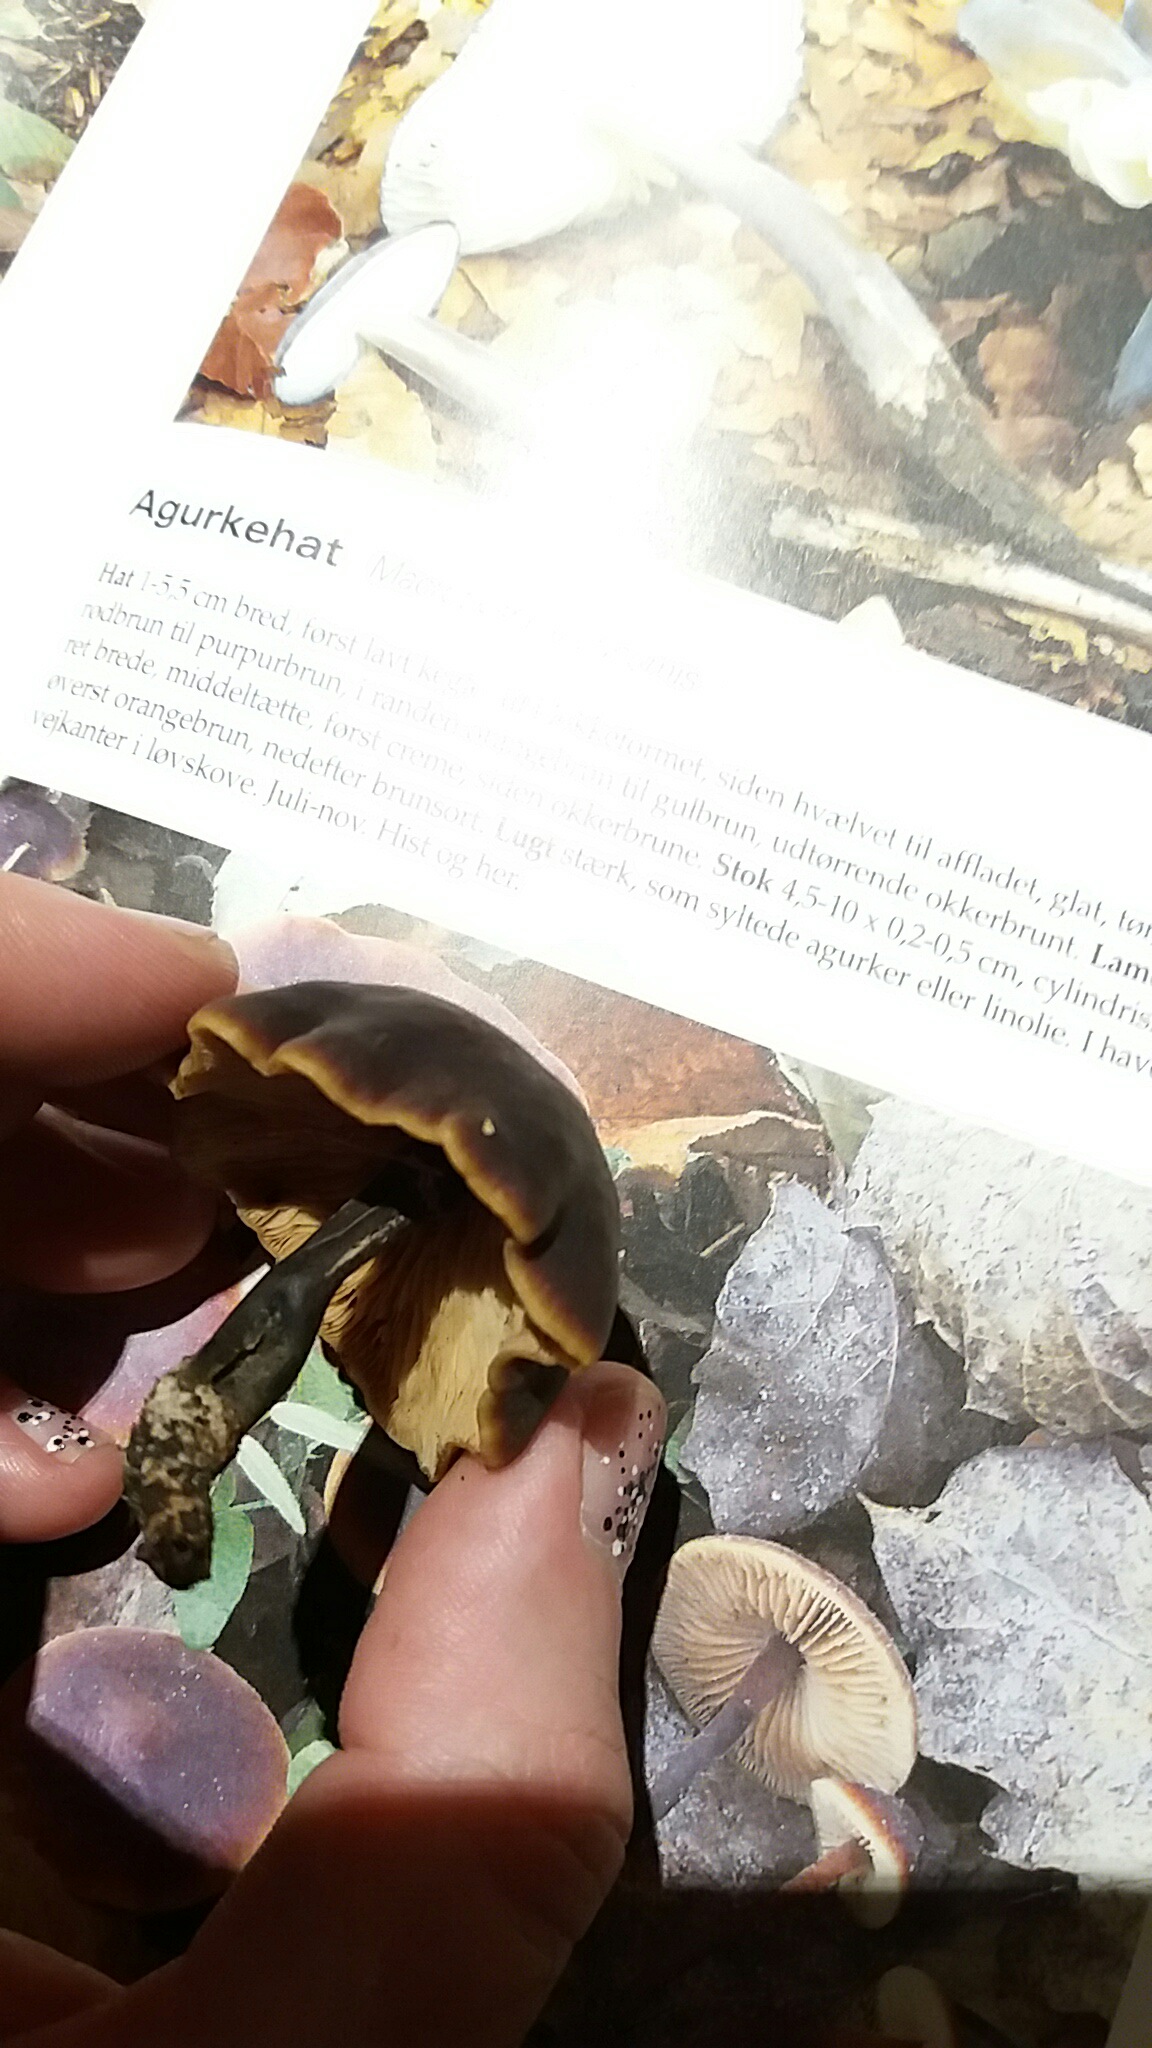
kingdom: Fungi
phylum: Basidiomycota
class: Agaricomycetes
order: Agaricales
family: Macrocystidiaceae
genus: Macrocystidia
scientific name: Macrocystidia cucumis
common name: agurkehat
